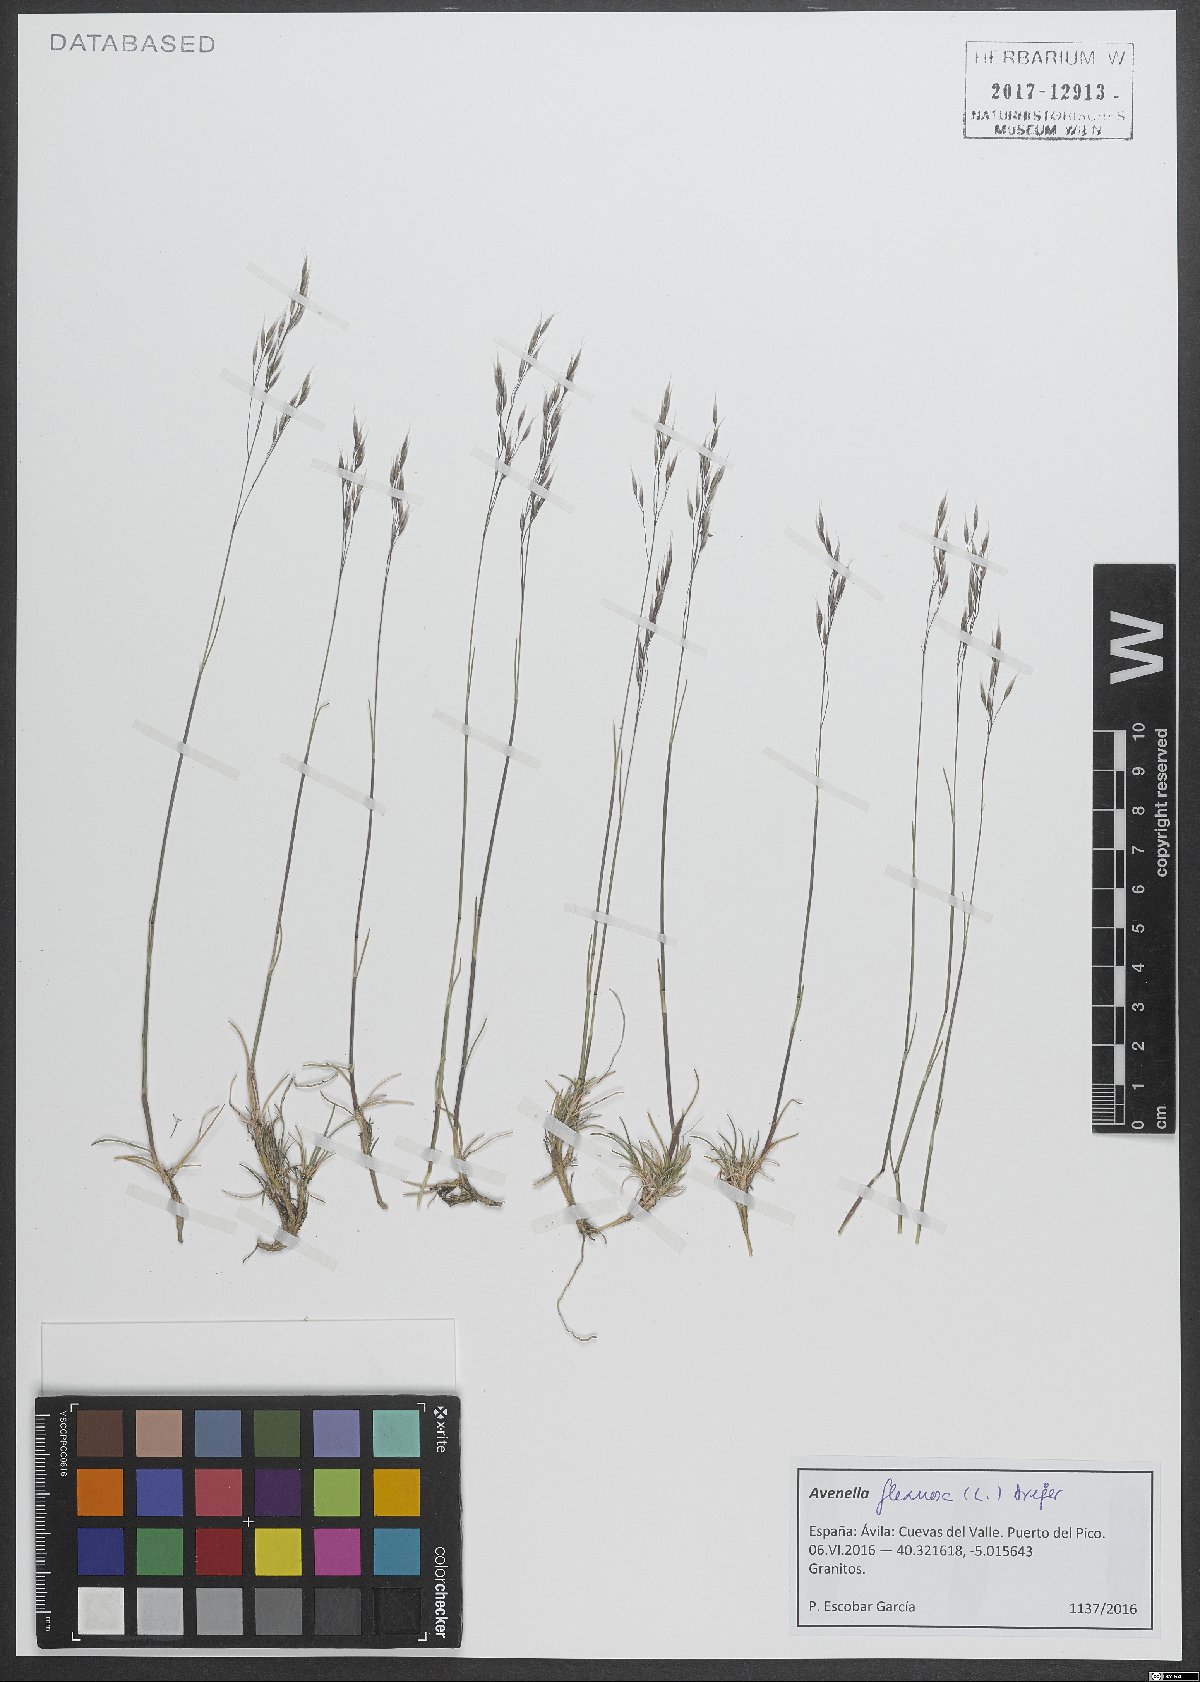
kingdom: Plantae
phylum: Tracheophyta
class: Liliopsida
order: Poales
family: Poaceae
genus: Avenella
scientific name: Avenella flexuosa
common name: Wavy hairgrass
